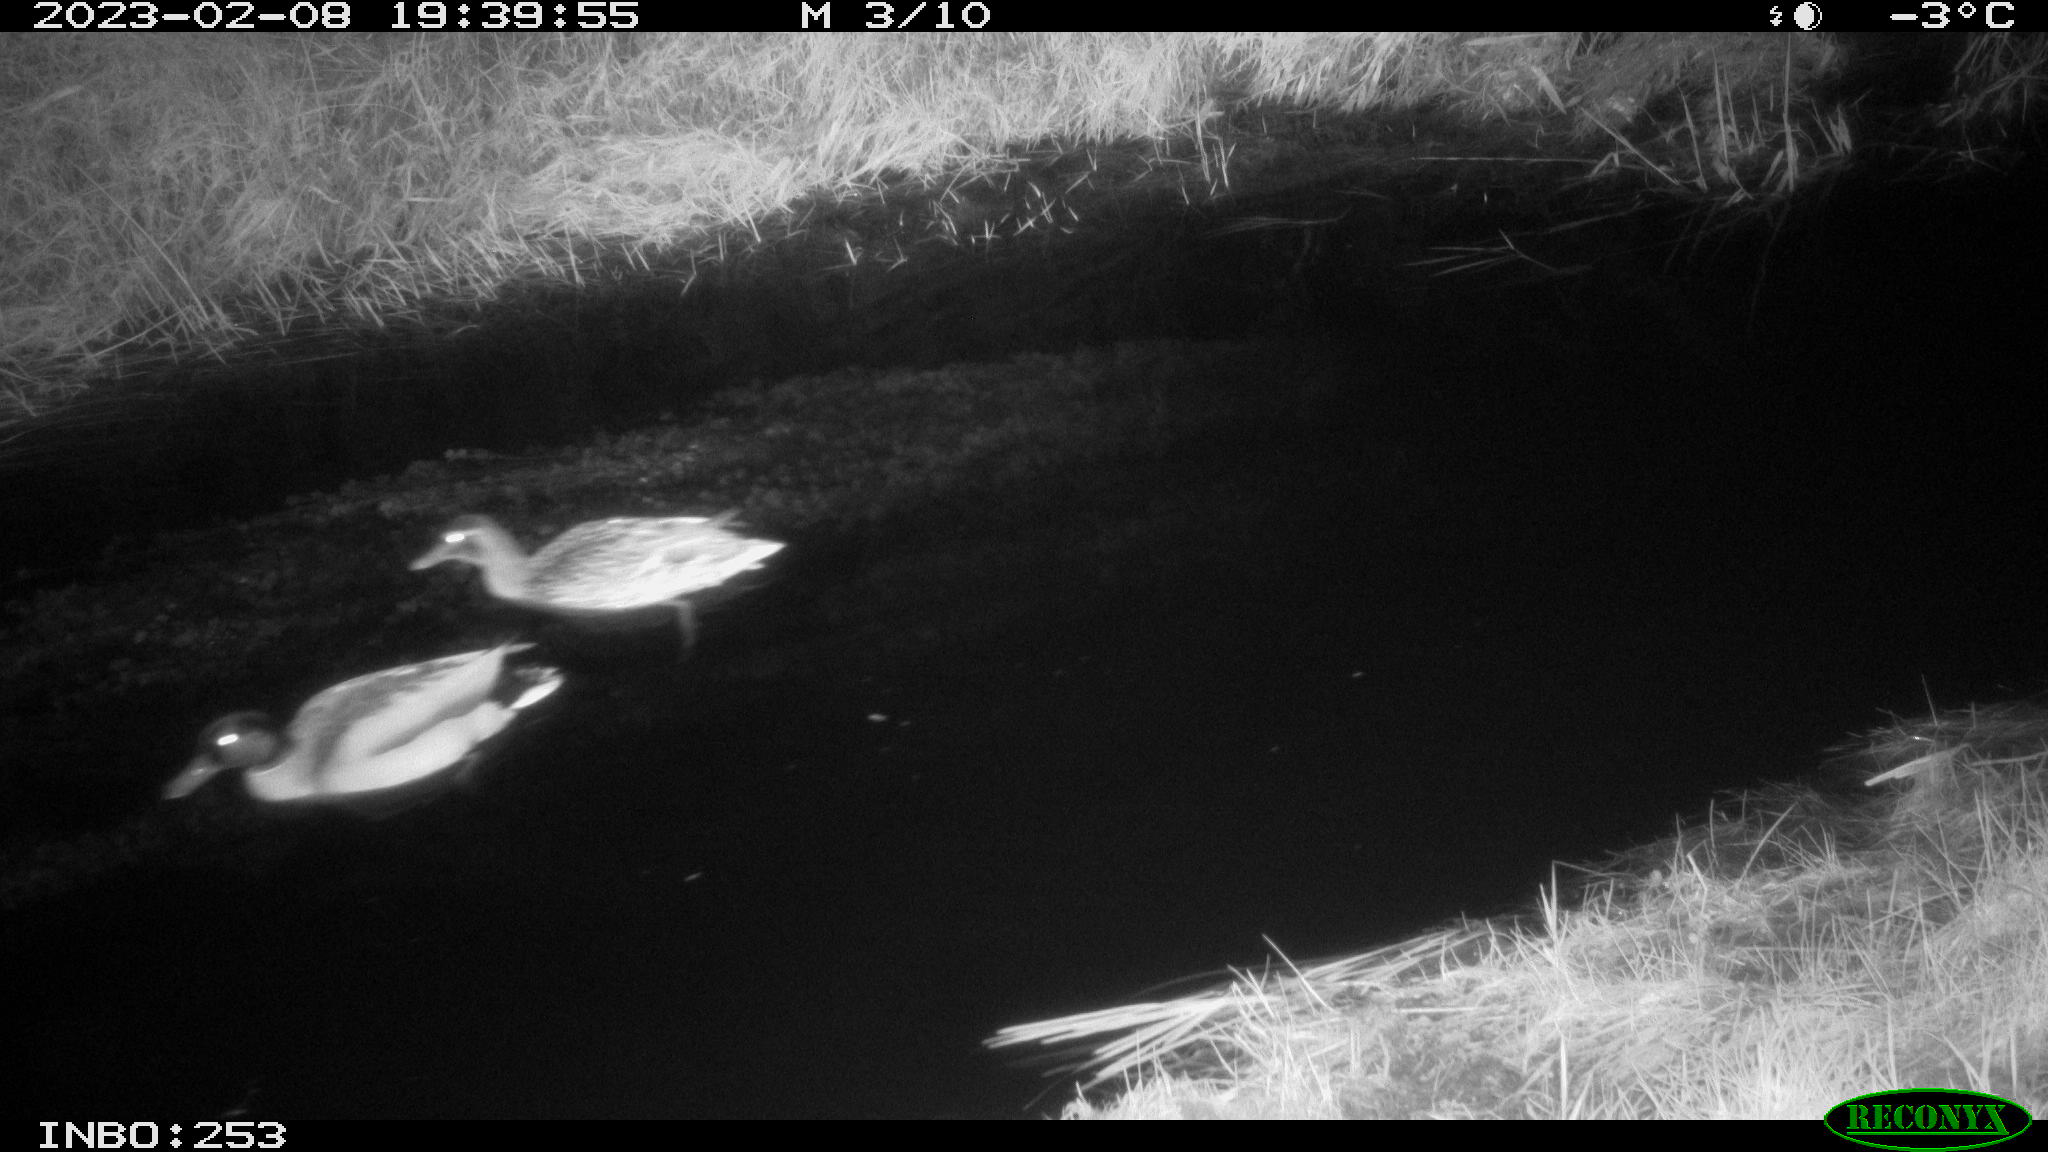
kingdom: Animalia
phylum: Chordata
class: Aves
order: Anseriformes
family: Anatidae
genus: Anas
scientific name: Anas
